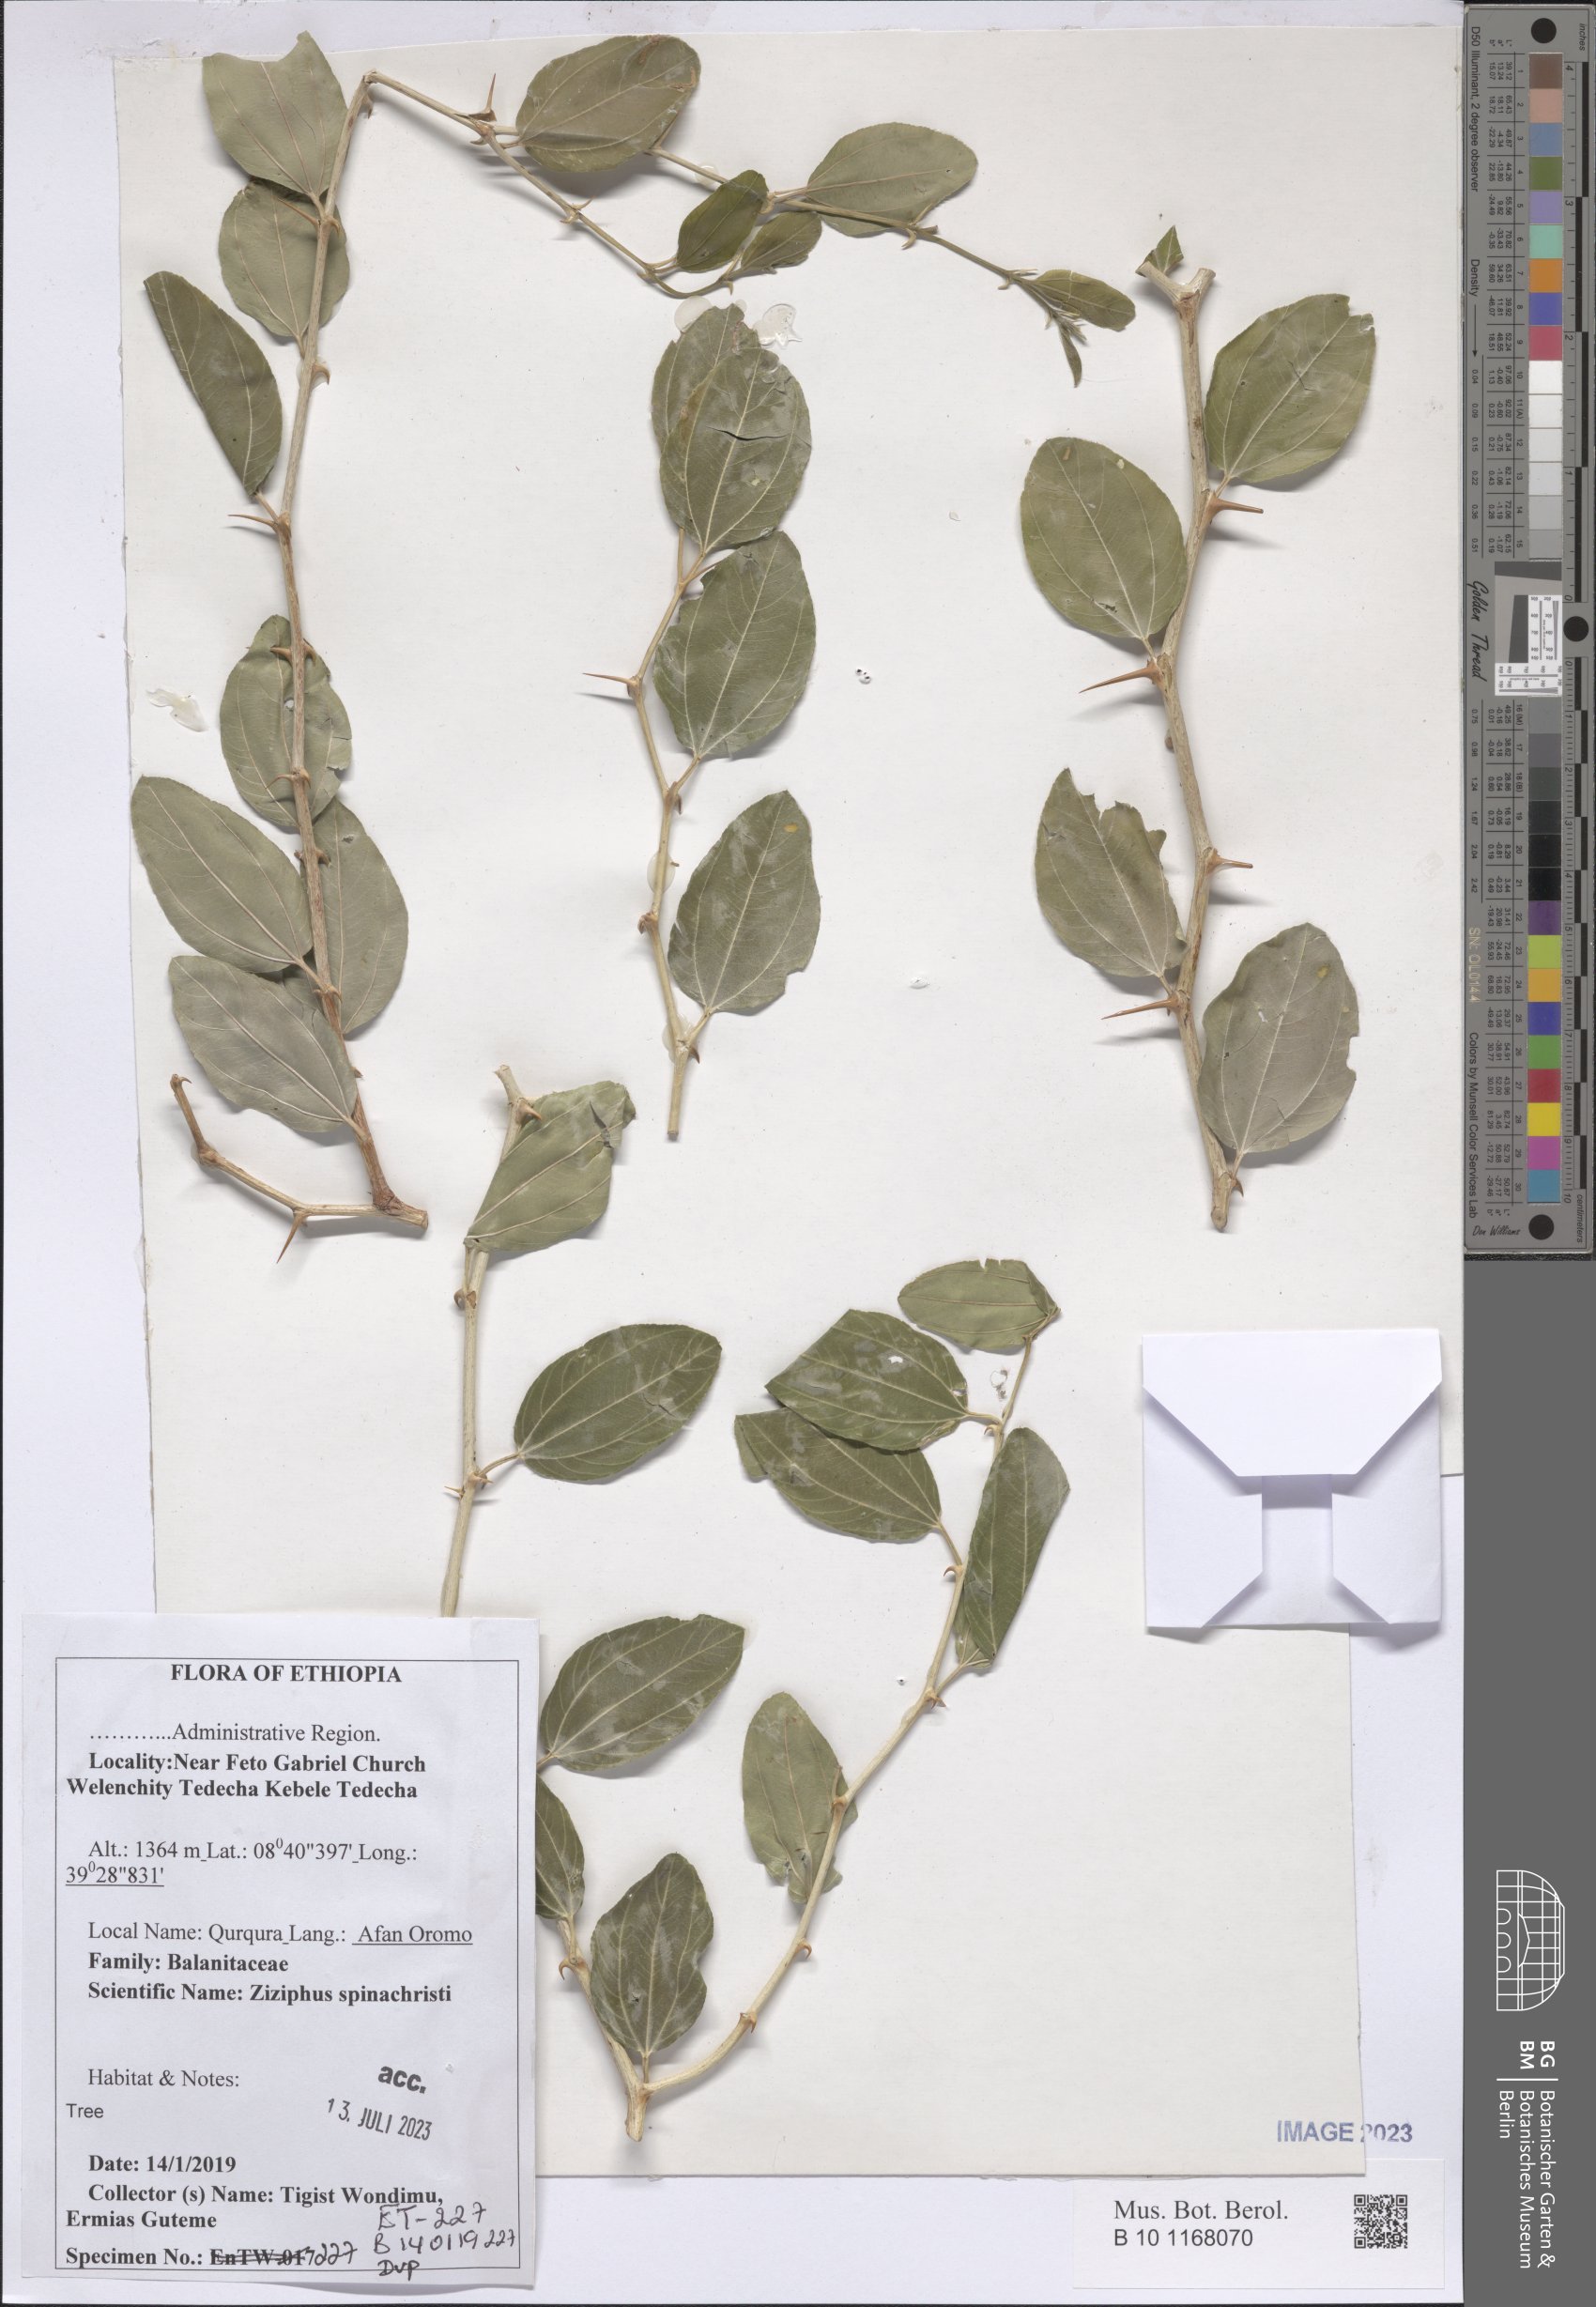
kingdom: Plantae
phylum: Tracheophyta
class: Magnoliopsida
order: Rosales
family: Rhamnaceae
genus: Ziziphus
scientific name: Ziziphus spina-christi
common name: Syrian christ-thorn
